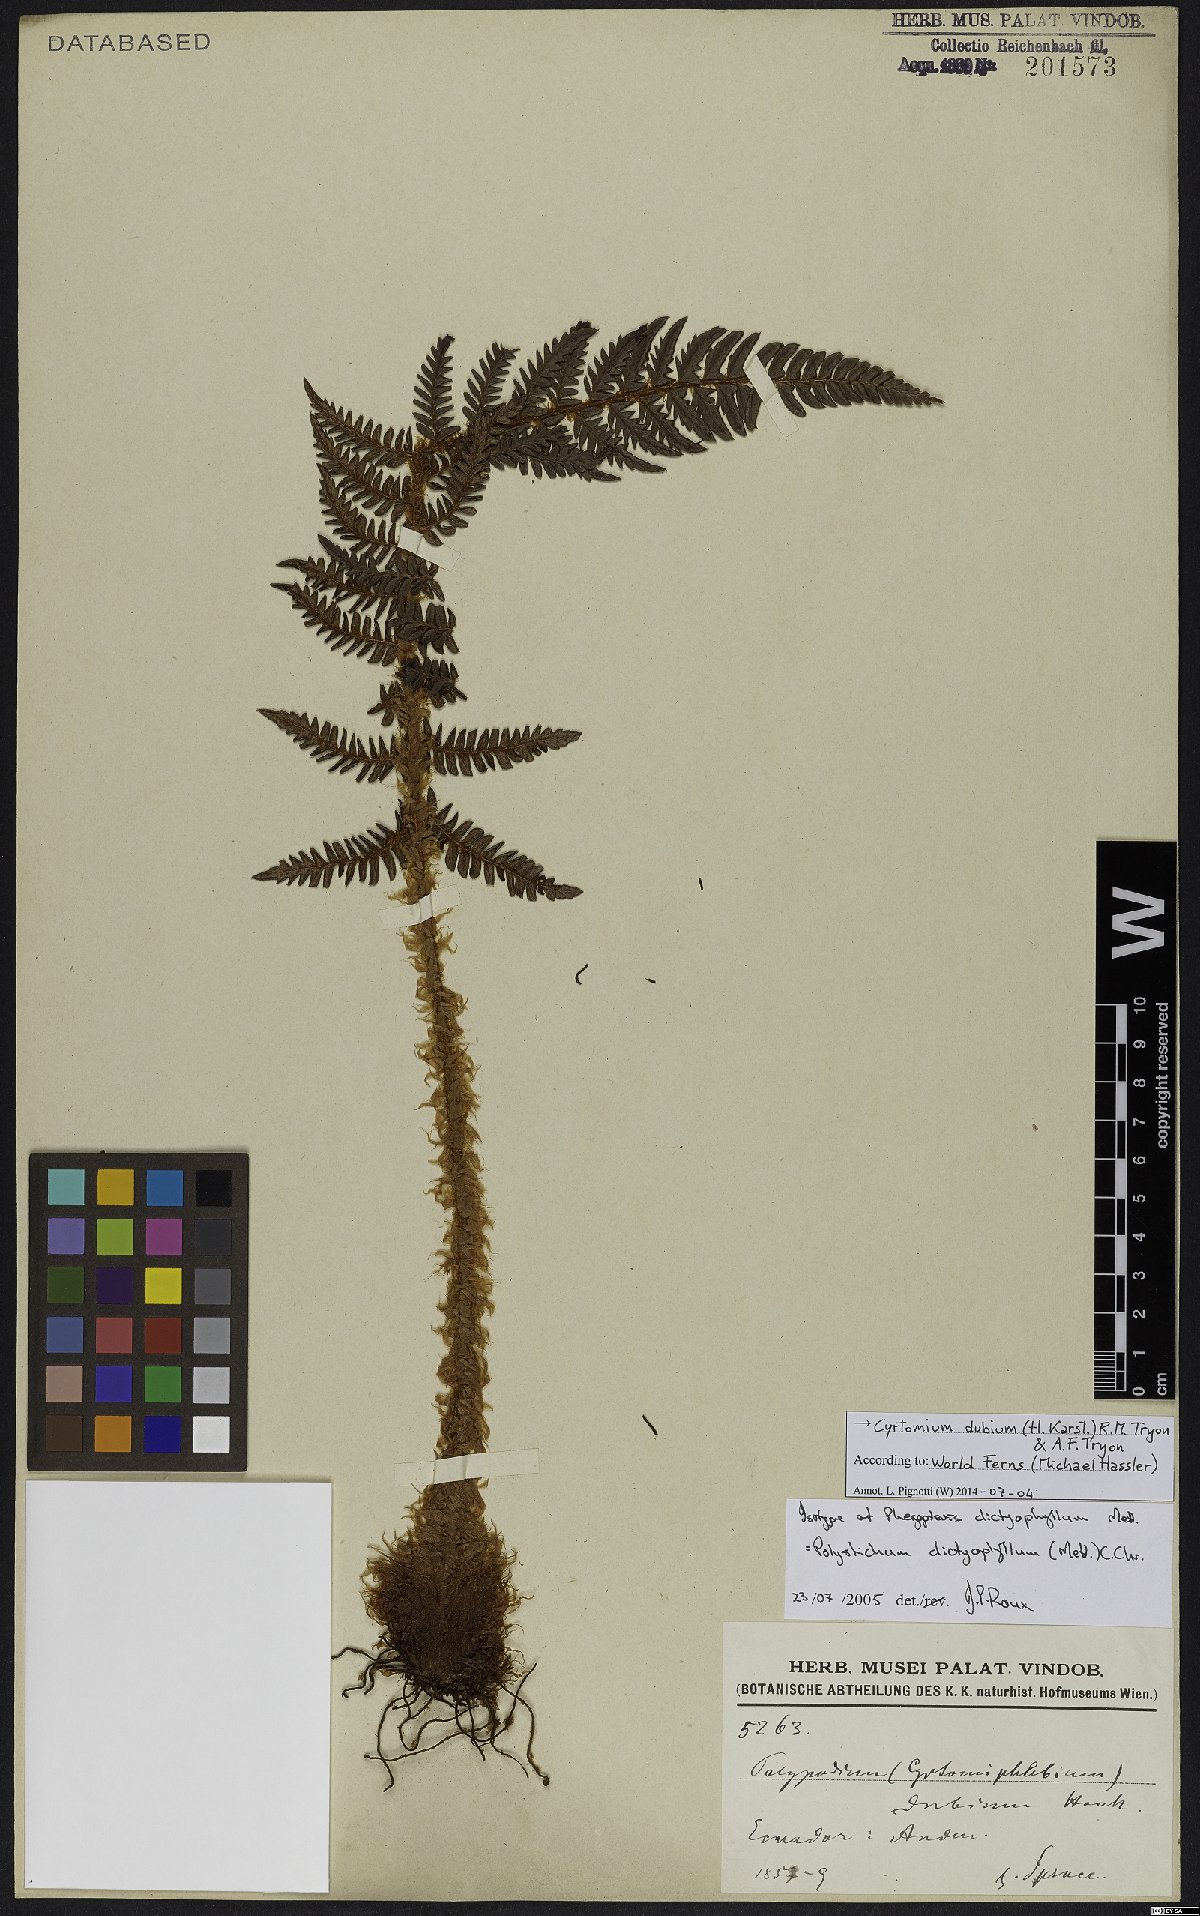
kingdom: Plantae
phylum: Tracheophyta
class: Polypodiopsida
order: Polypodiales
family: Dryopteridaceae
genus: Polystichum
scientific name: Polystichum dubium
